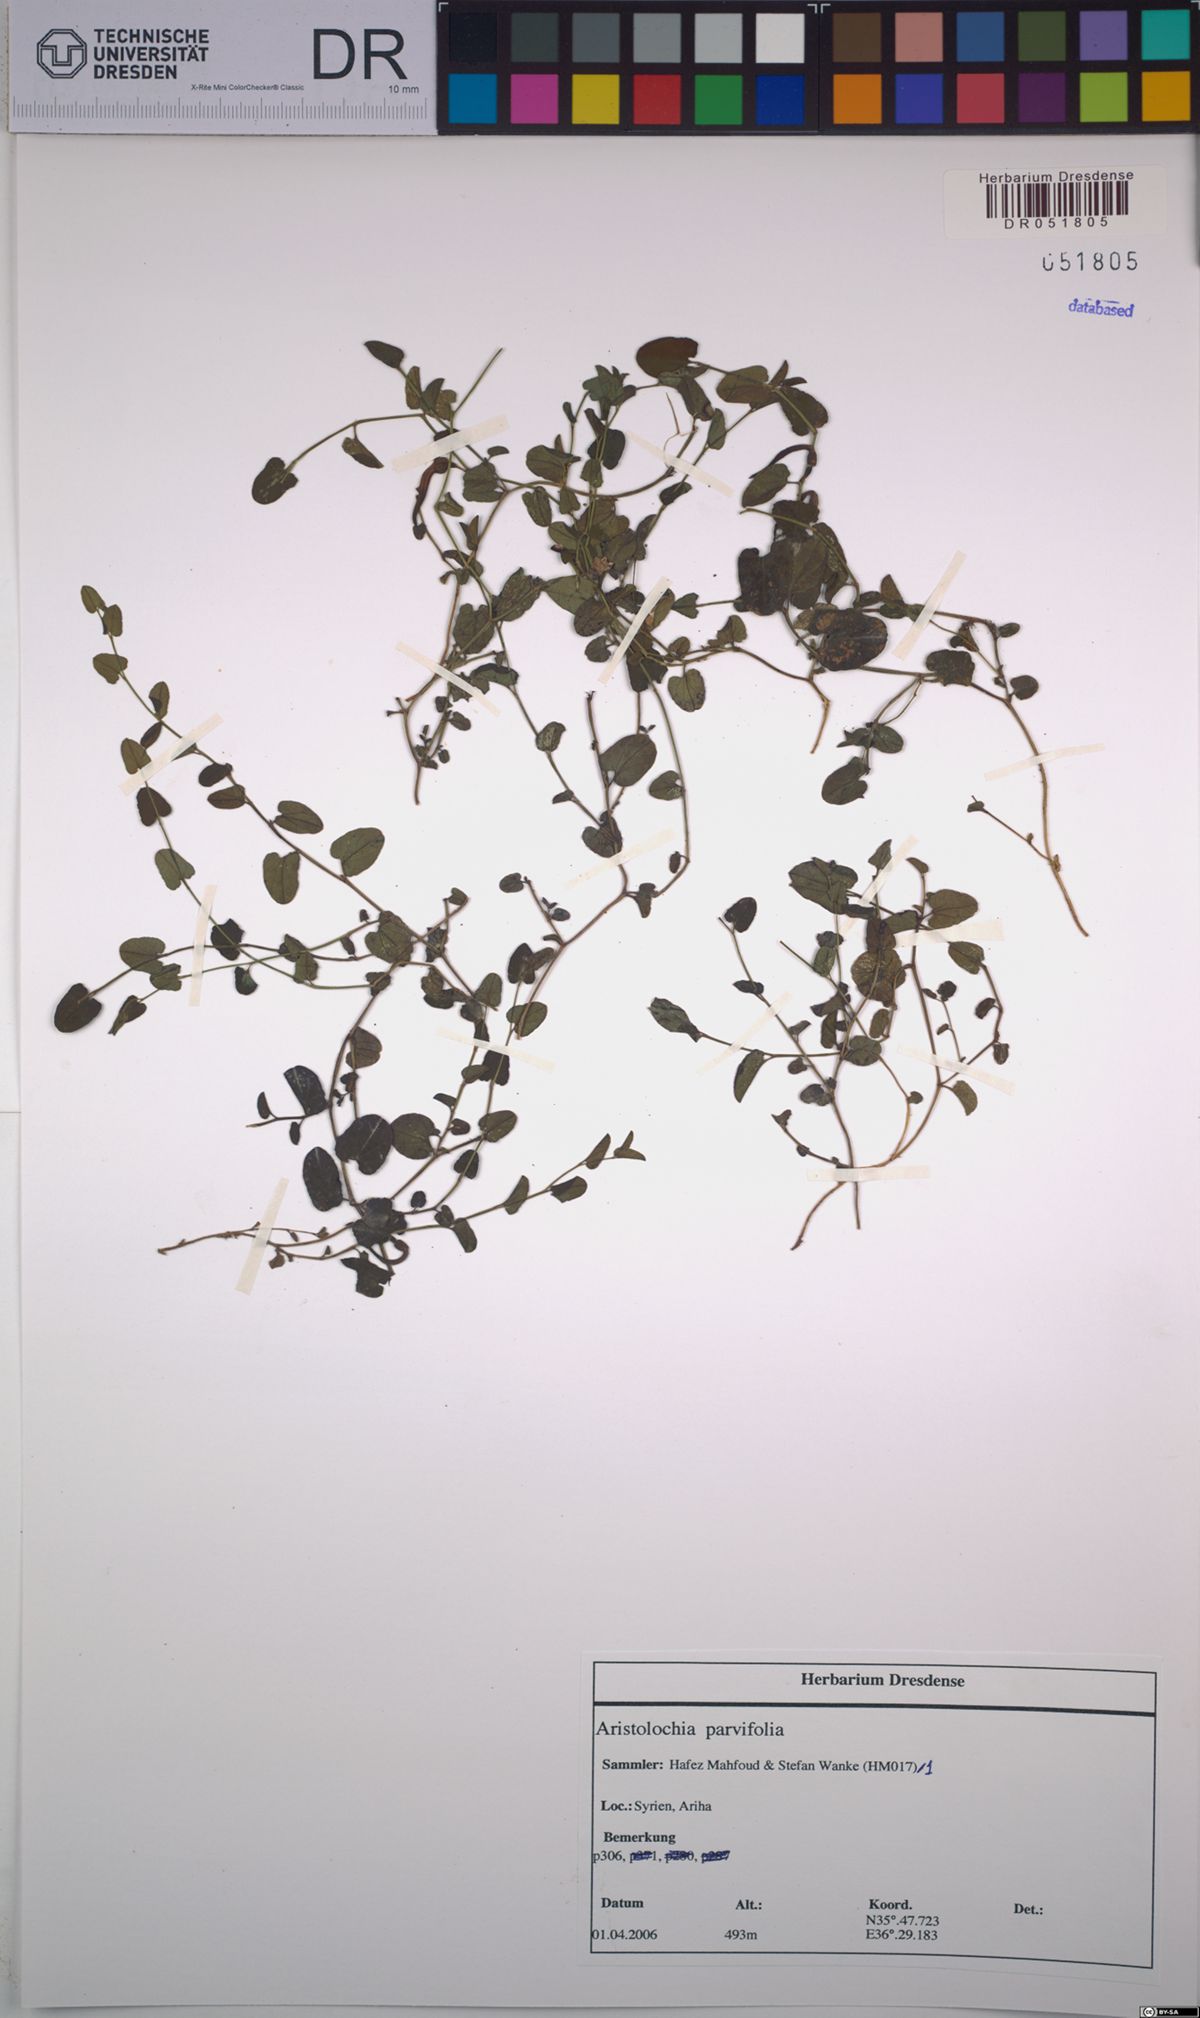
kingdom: Plantae
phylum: Tracheophyta
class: Magnoliopsida
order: Piperales
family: Aristolochiaceae
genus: Aristolochia
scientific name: Aristolochia parvifolia
